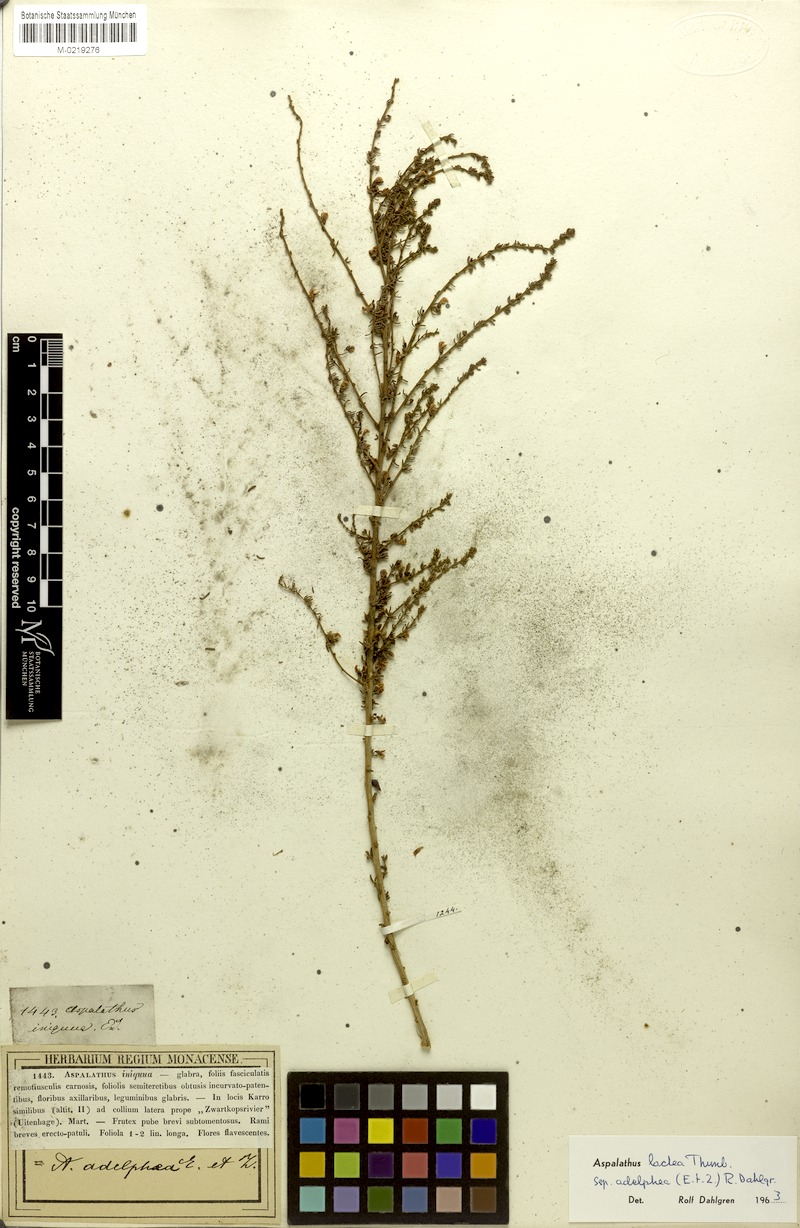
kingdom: Plantae
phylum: Tracheophyta
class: Magnoliopsida
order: Fabales
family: Fabaceae
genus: Aspalathus
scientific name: Aspalathus lactea
